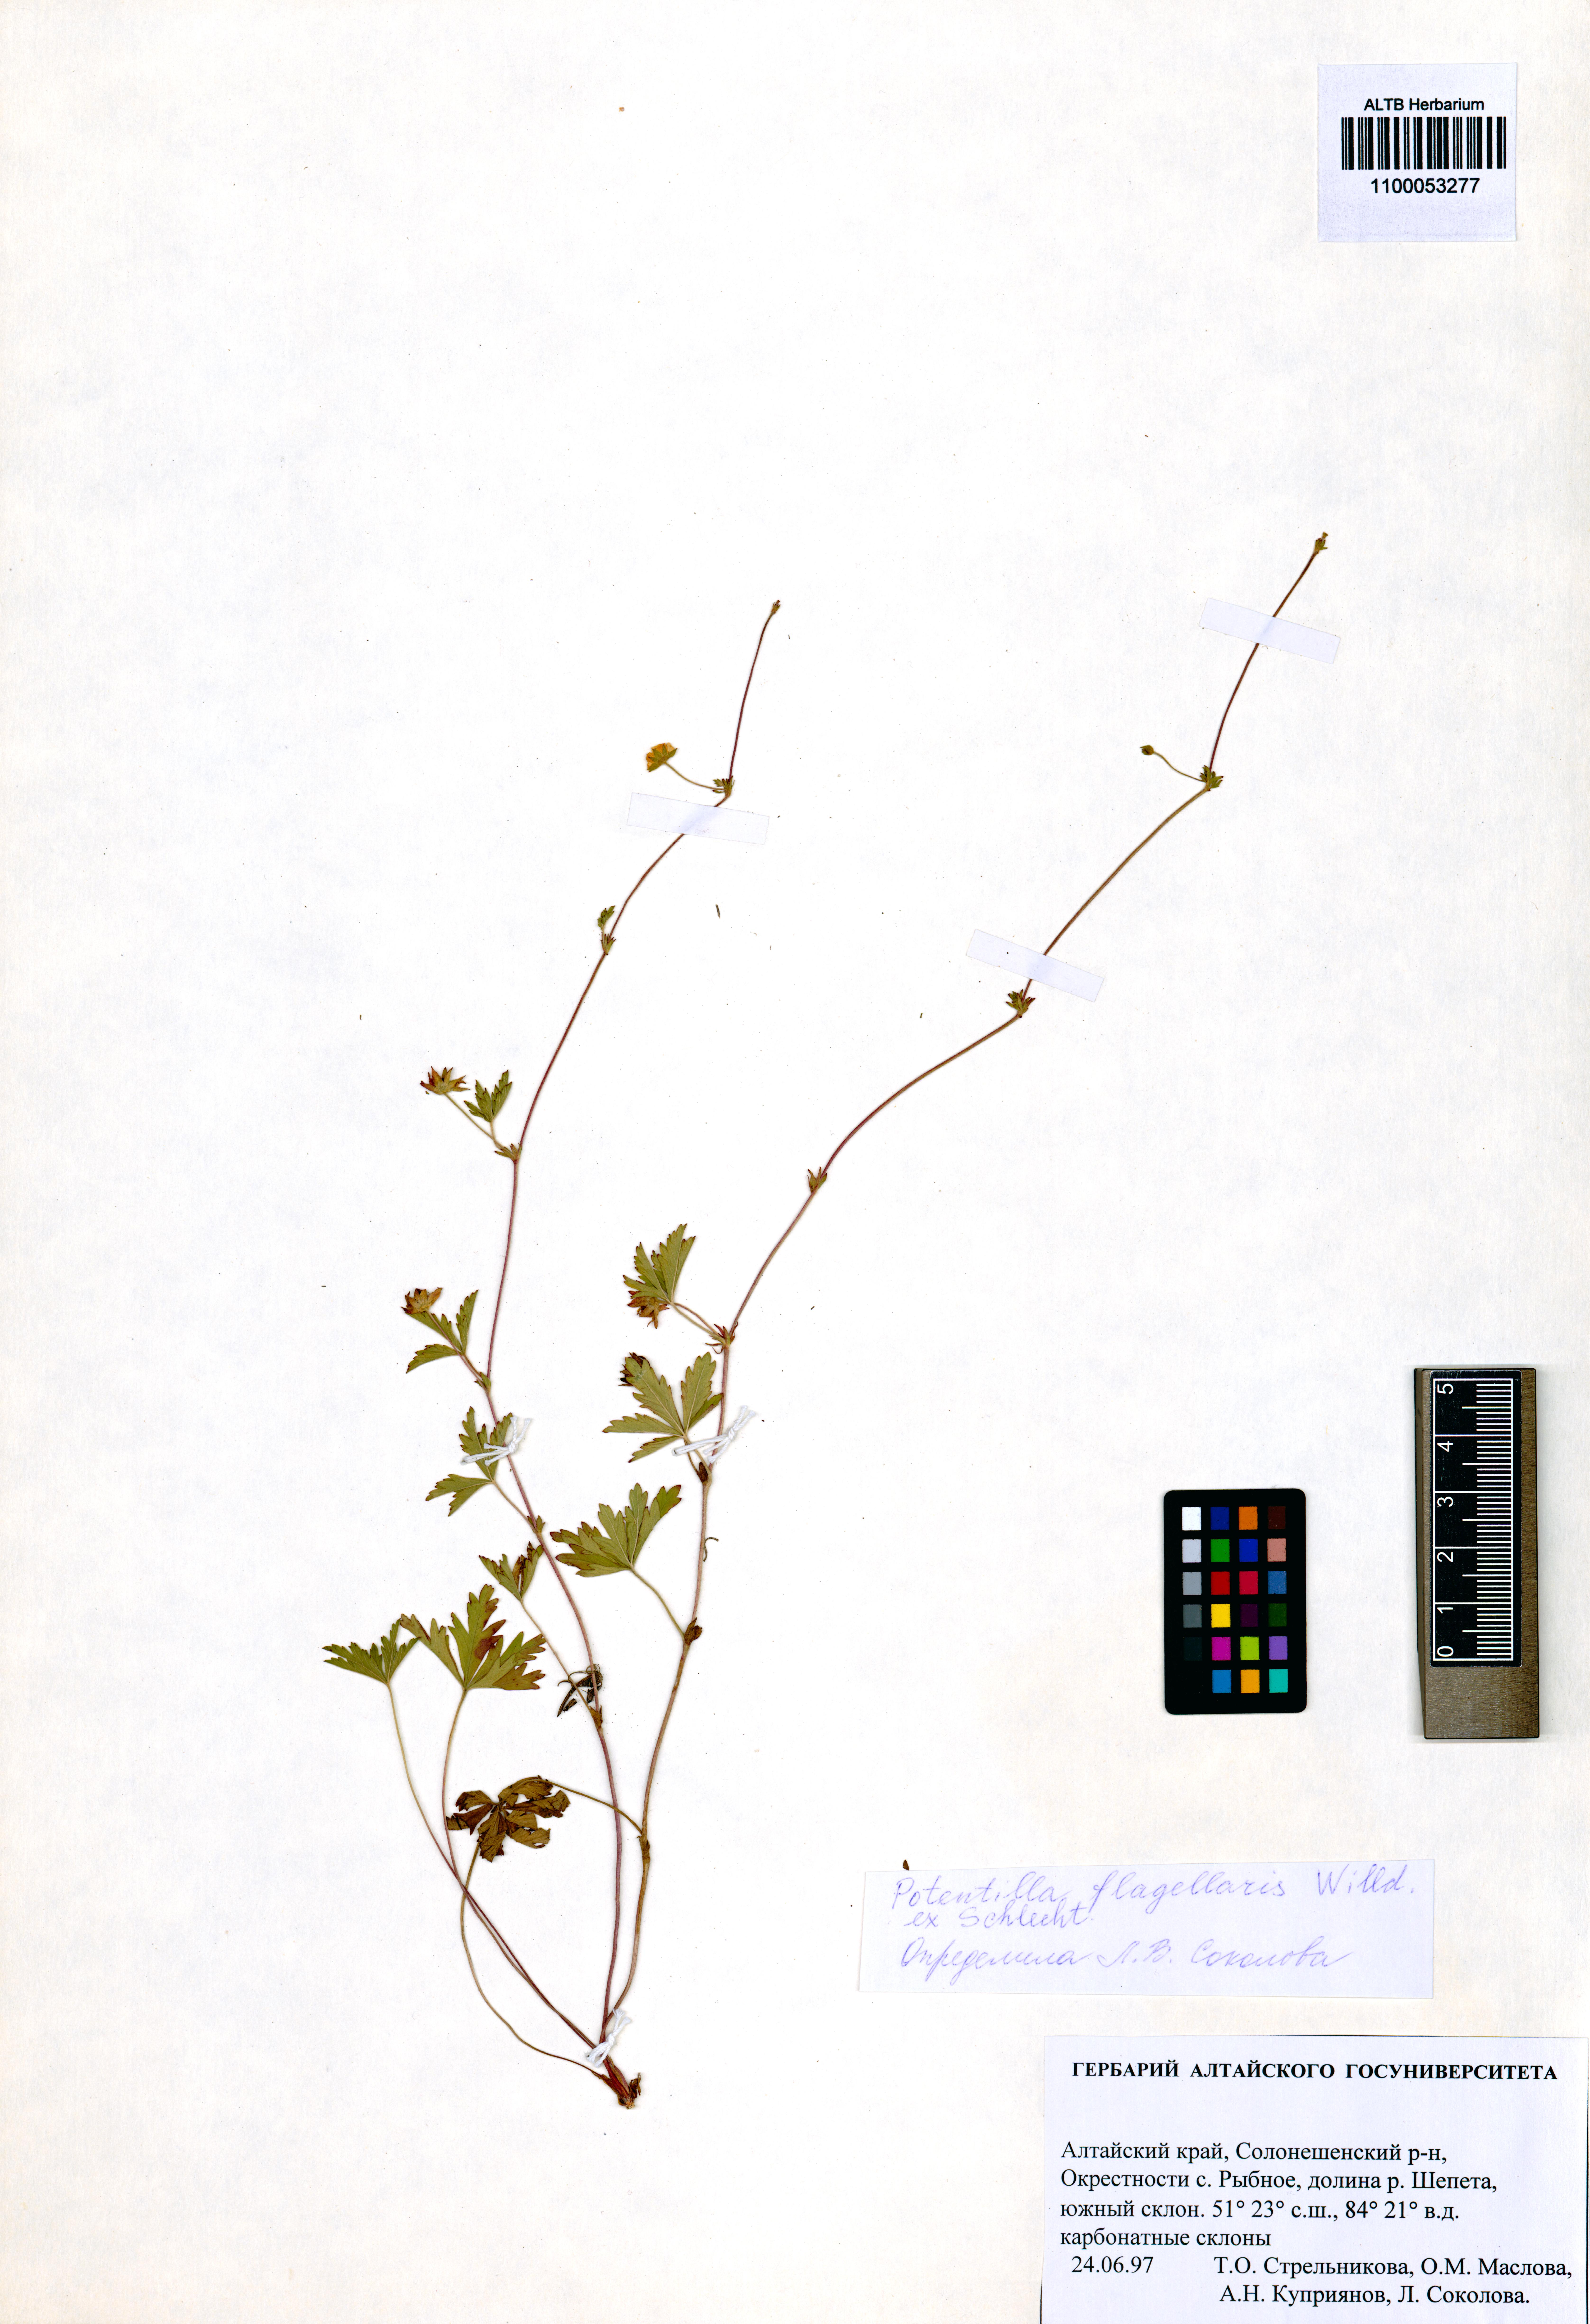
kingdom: Plantae
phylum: Tracheophyta
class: Magnoliopsida
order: Rosales
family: Rosaceae
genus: Potentilla
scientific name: Potentilla flagellaris
